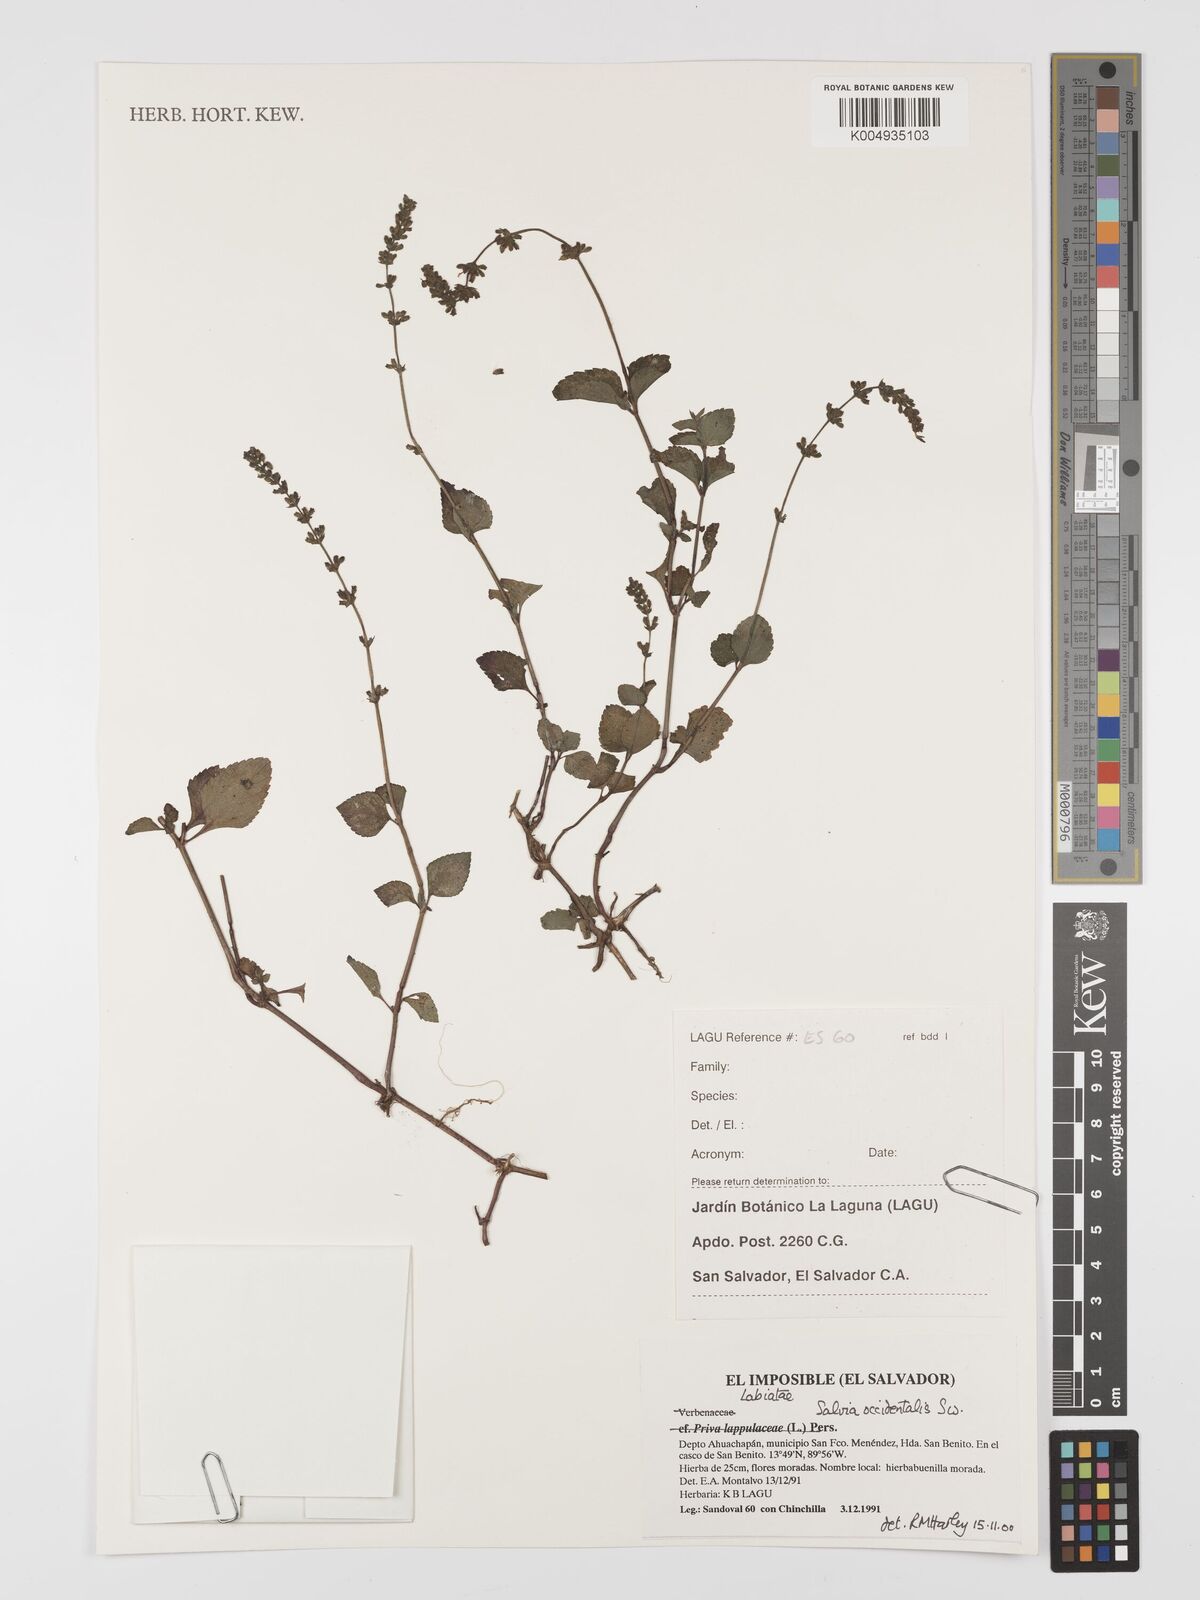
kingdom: Plantae
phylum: Tracheophyta
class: Magnoliopsida
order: Lamiales
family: Lamiaceae
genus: Salvia
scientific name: Salvia occidentalis
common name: West indian sage
